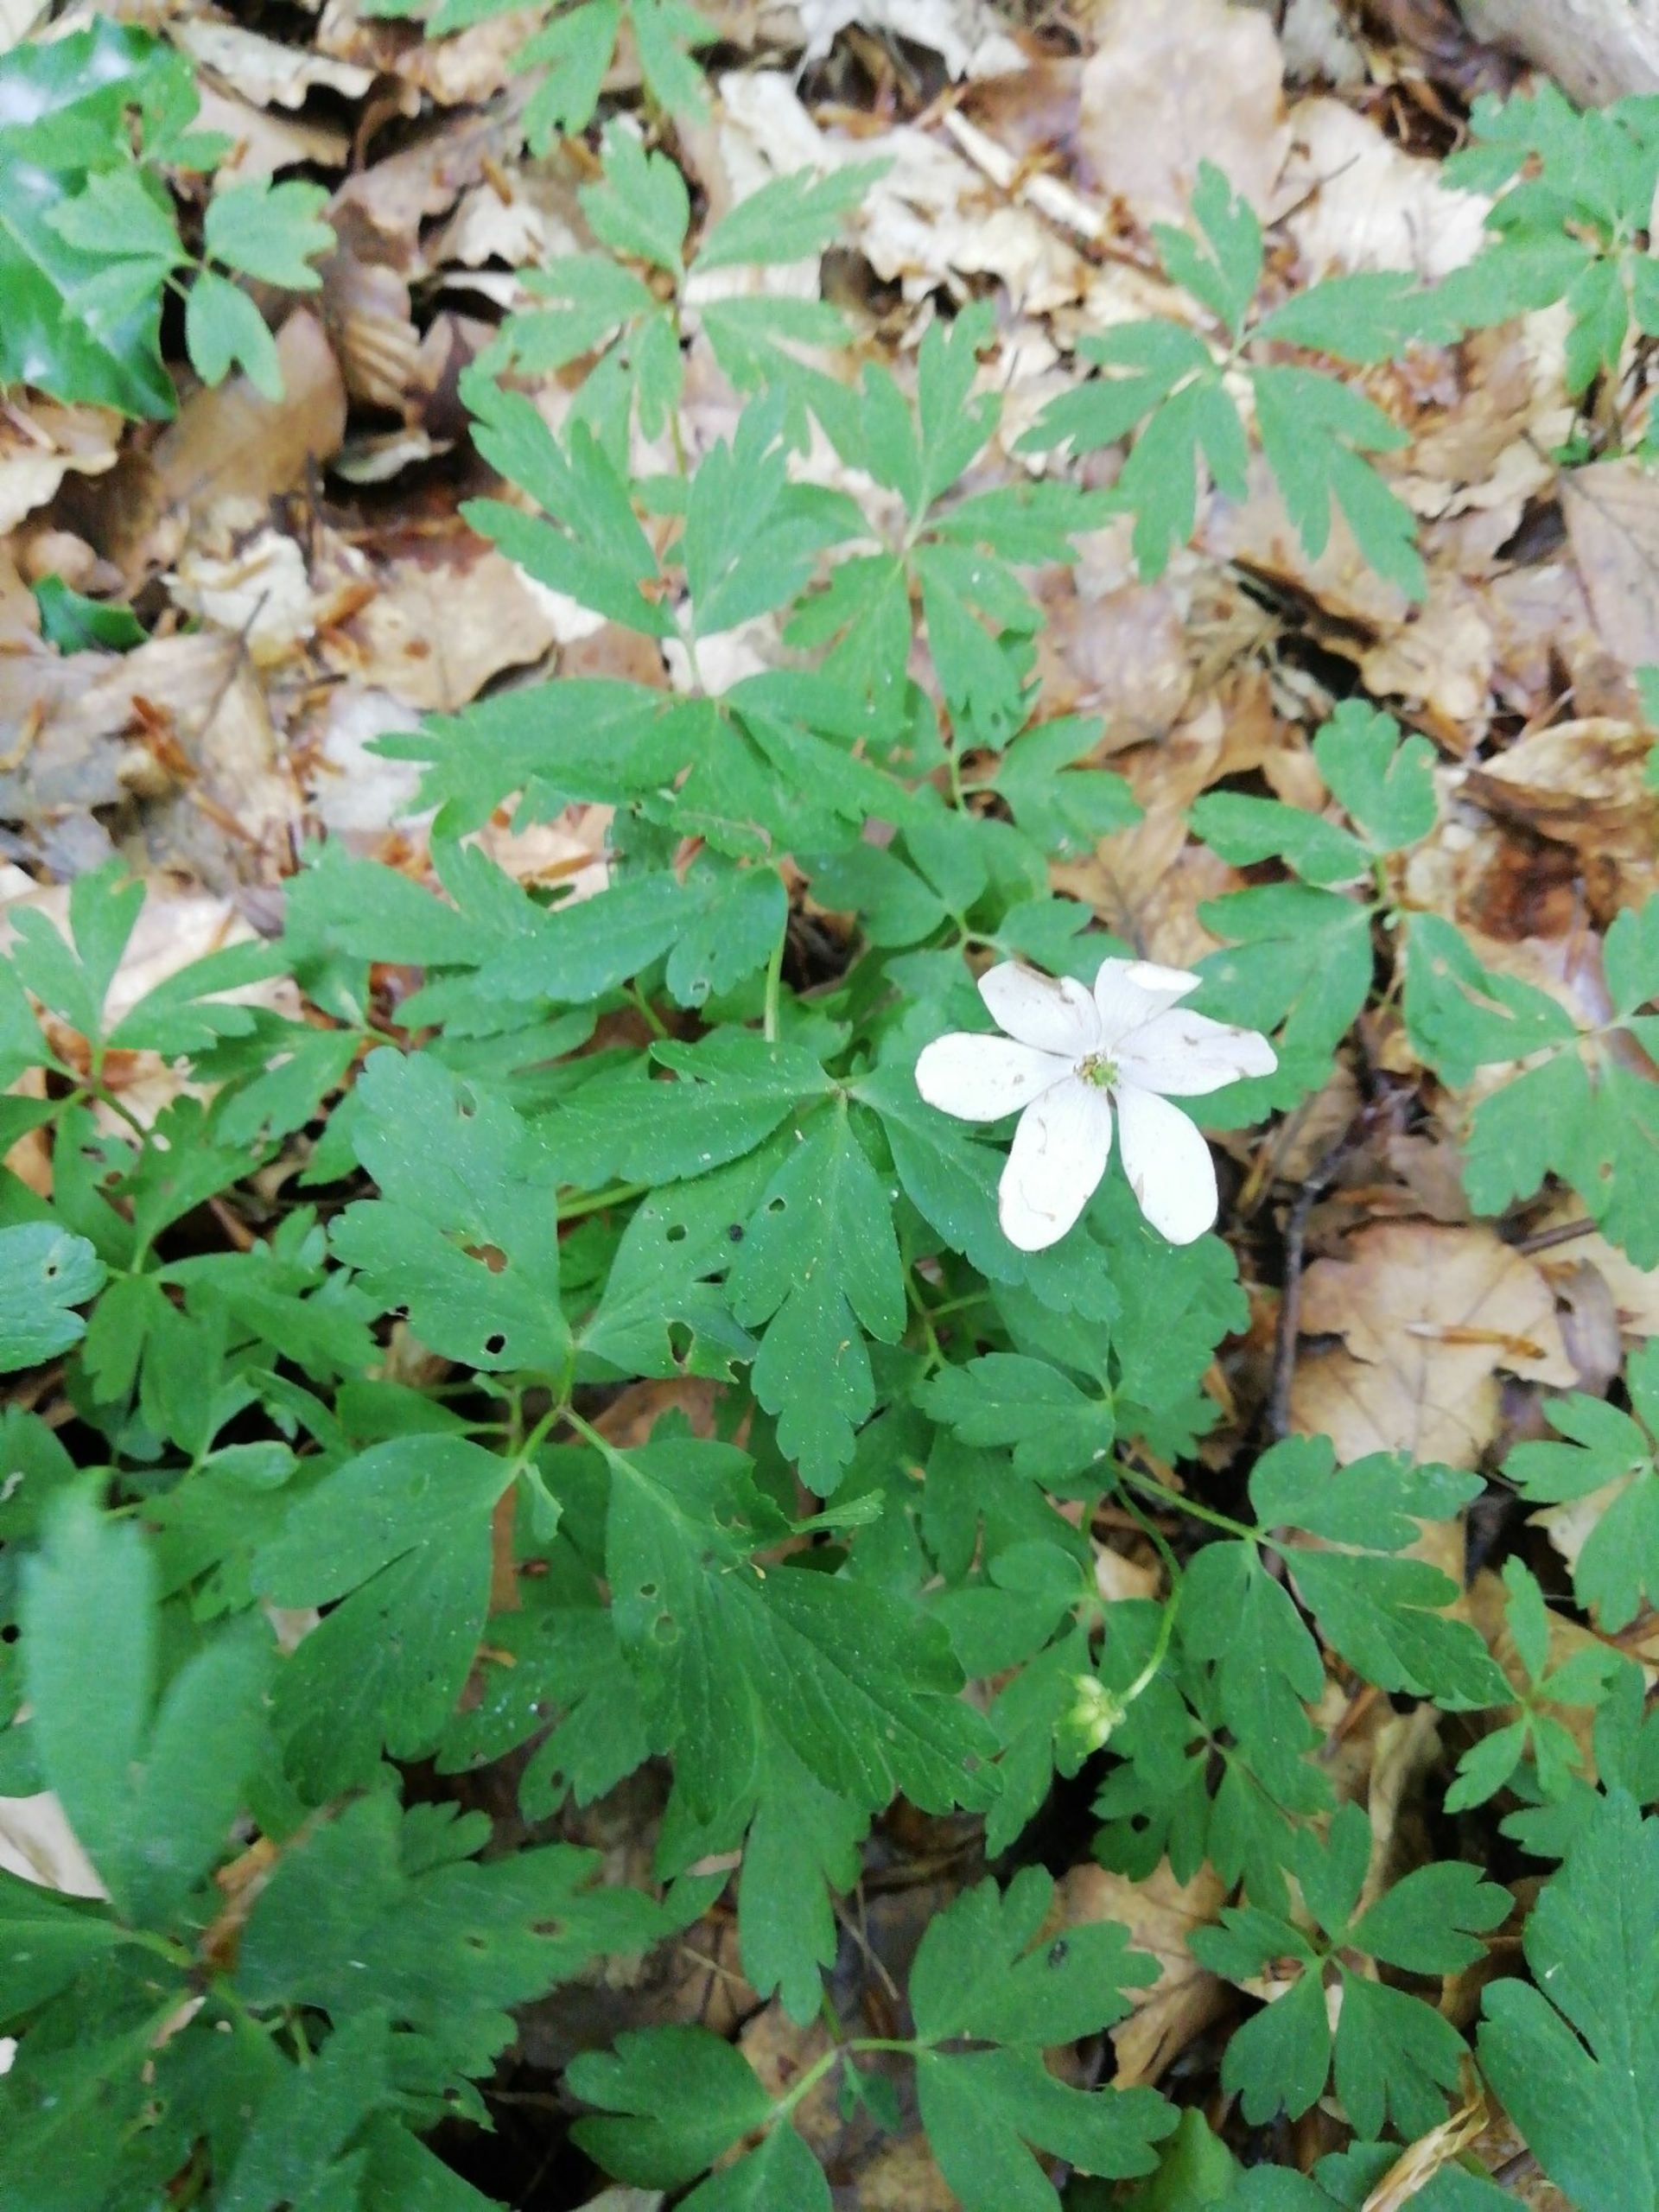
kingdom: Plantae
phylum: Tracheophyta
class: Magnoliopsida
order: Ranunculales
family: Ranunculaceae
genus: Anemone
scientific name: Anemone nemorosa
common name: Hvid anemone
